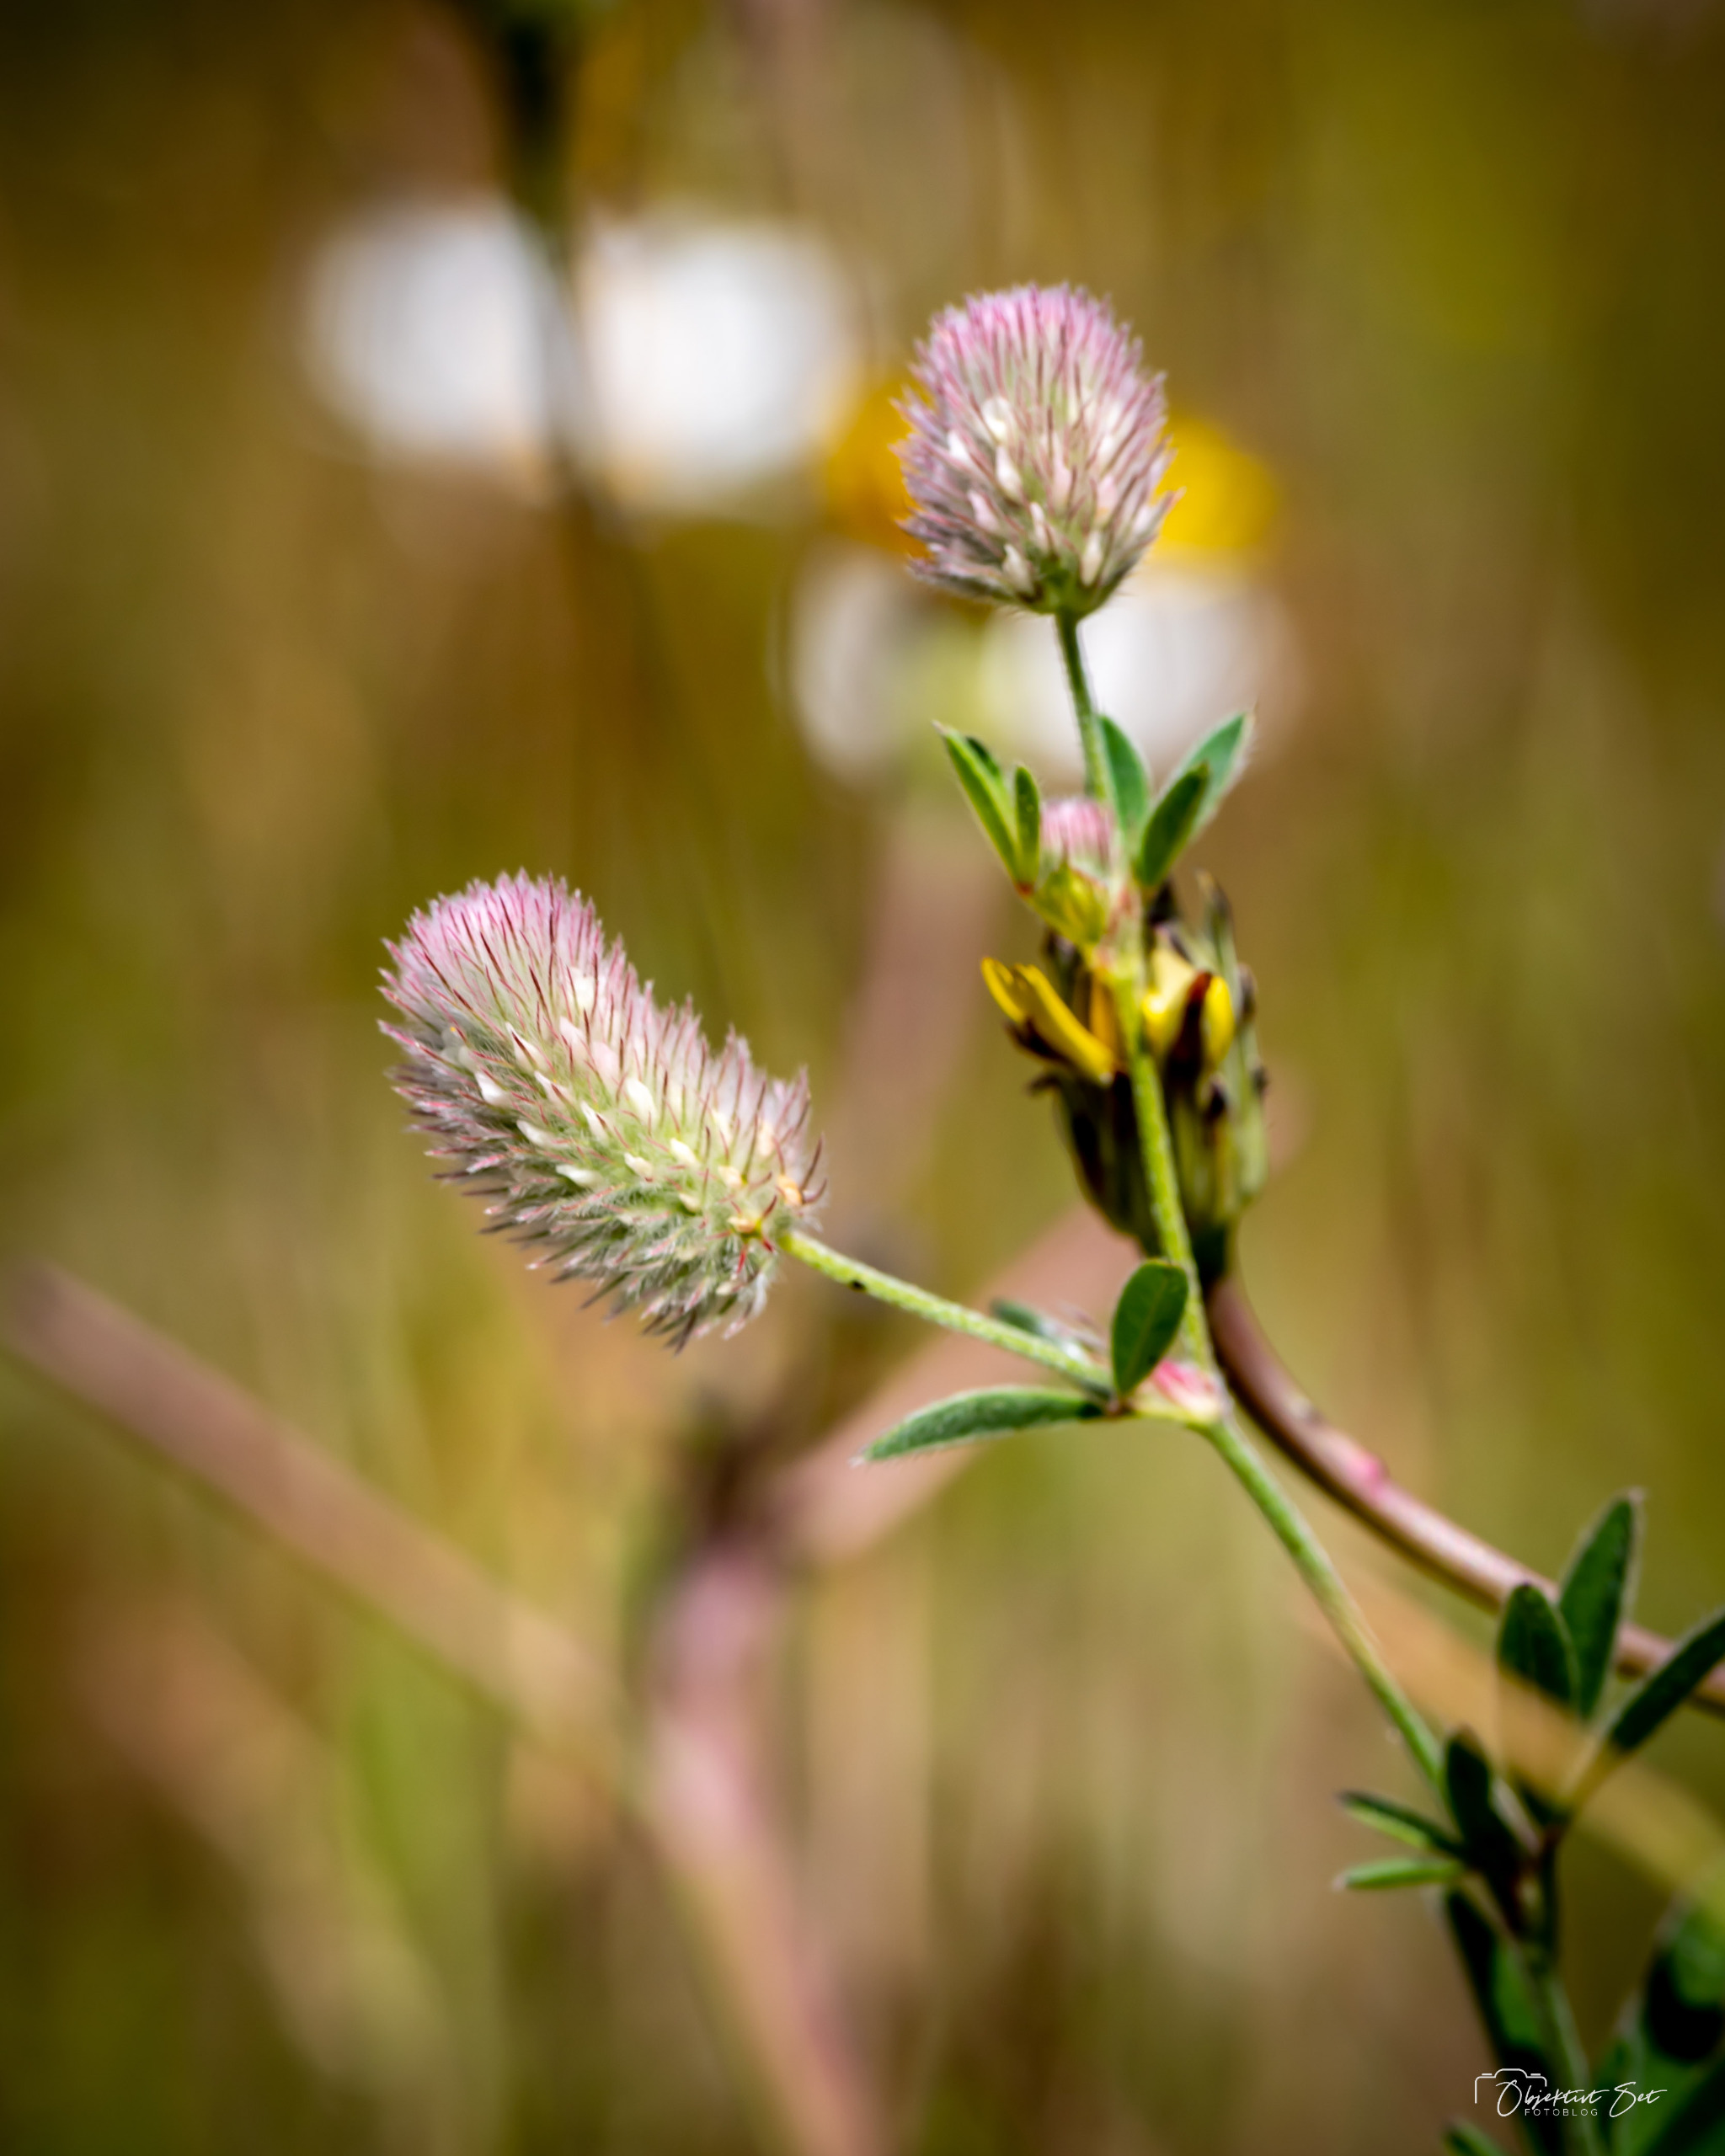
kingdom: Plantae
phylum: Tracheophyta
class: Magnoliopsida
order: Fabales
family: Fabaceae
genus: Trifolium
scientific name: Trifolium arvense
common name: Hare-kløver
